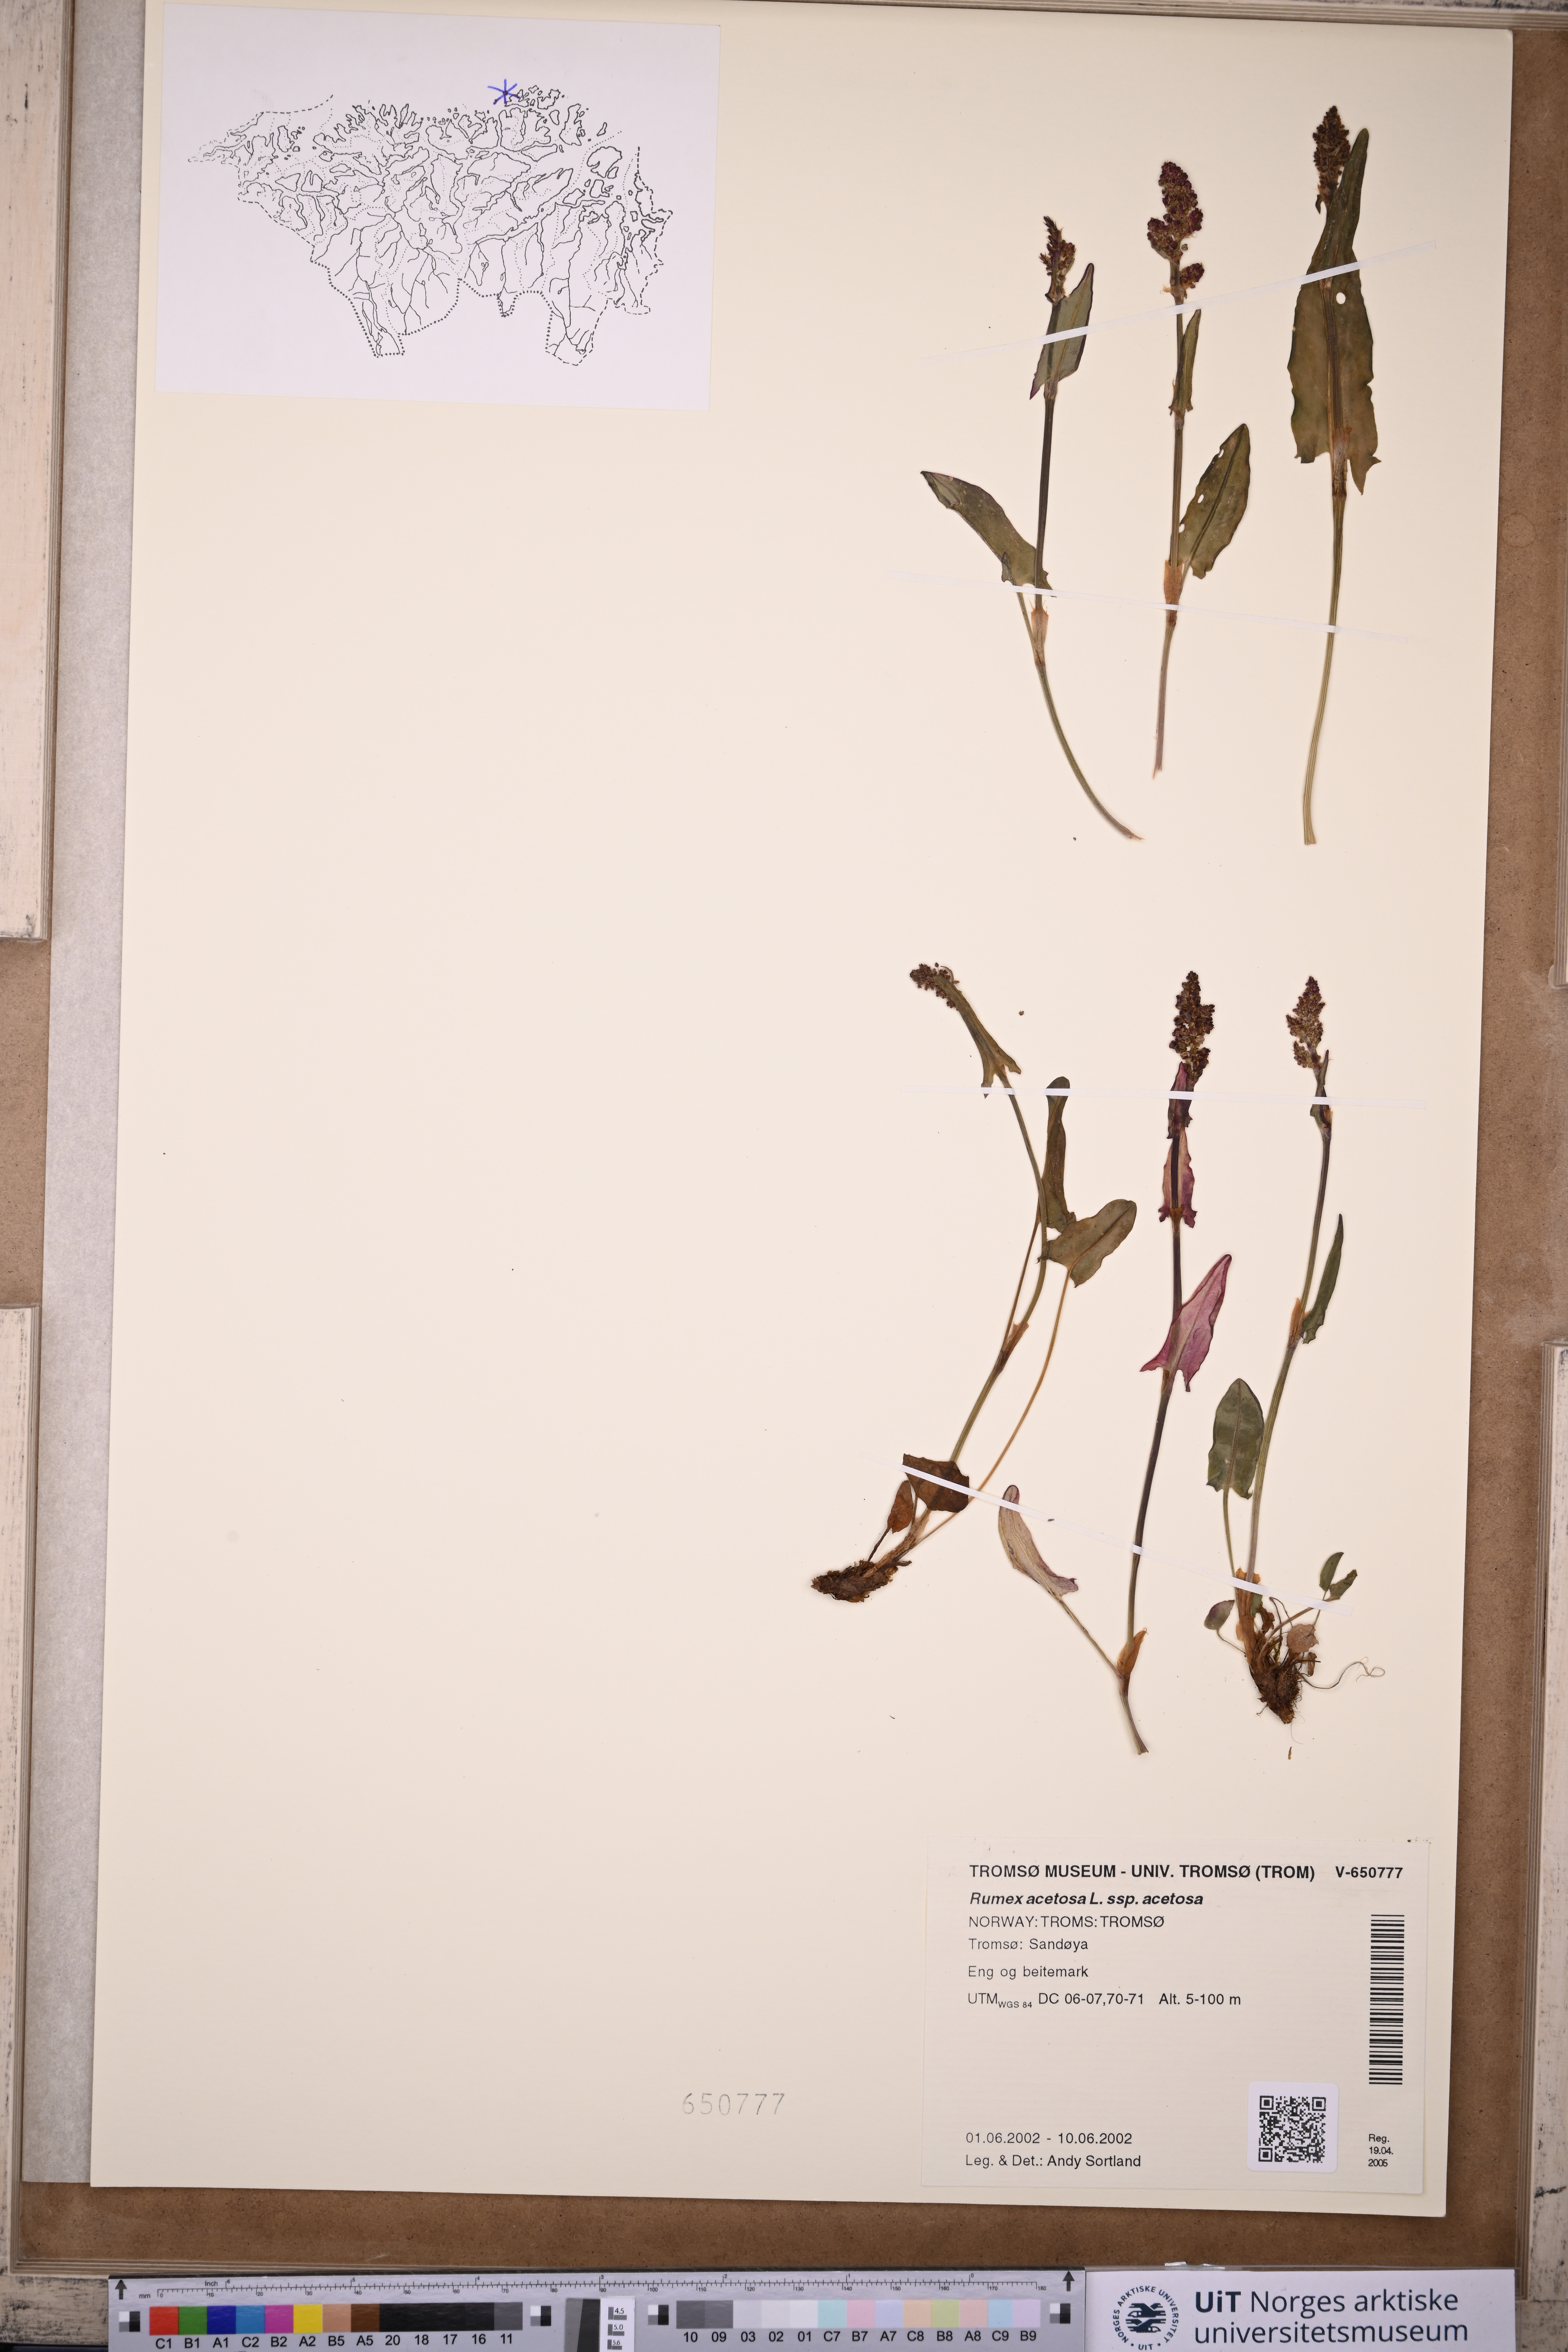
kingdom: Plantae
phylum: Tracheophyta
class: Magnoliopsida
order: Caryophyllales
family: Polygonaceae
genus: Rumex
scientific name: Rumex acetosa
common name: Garden sorrel
